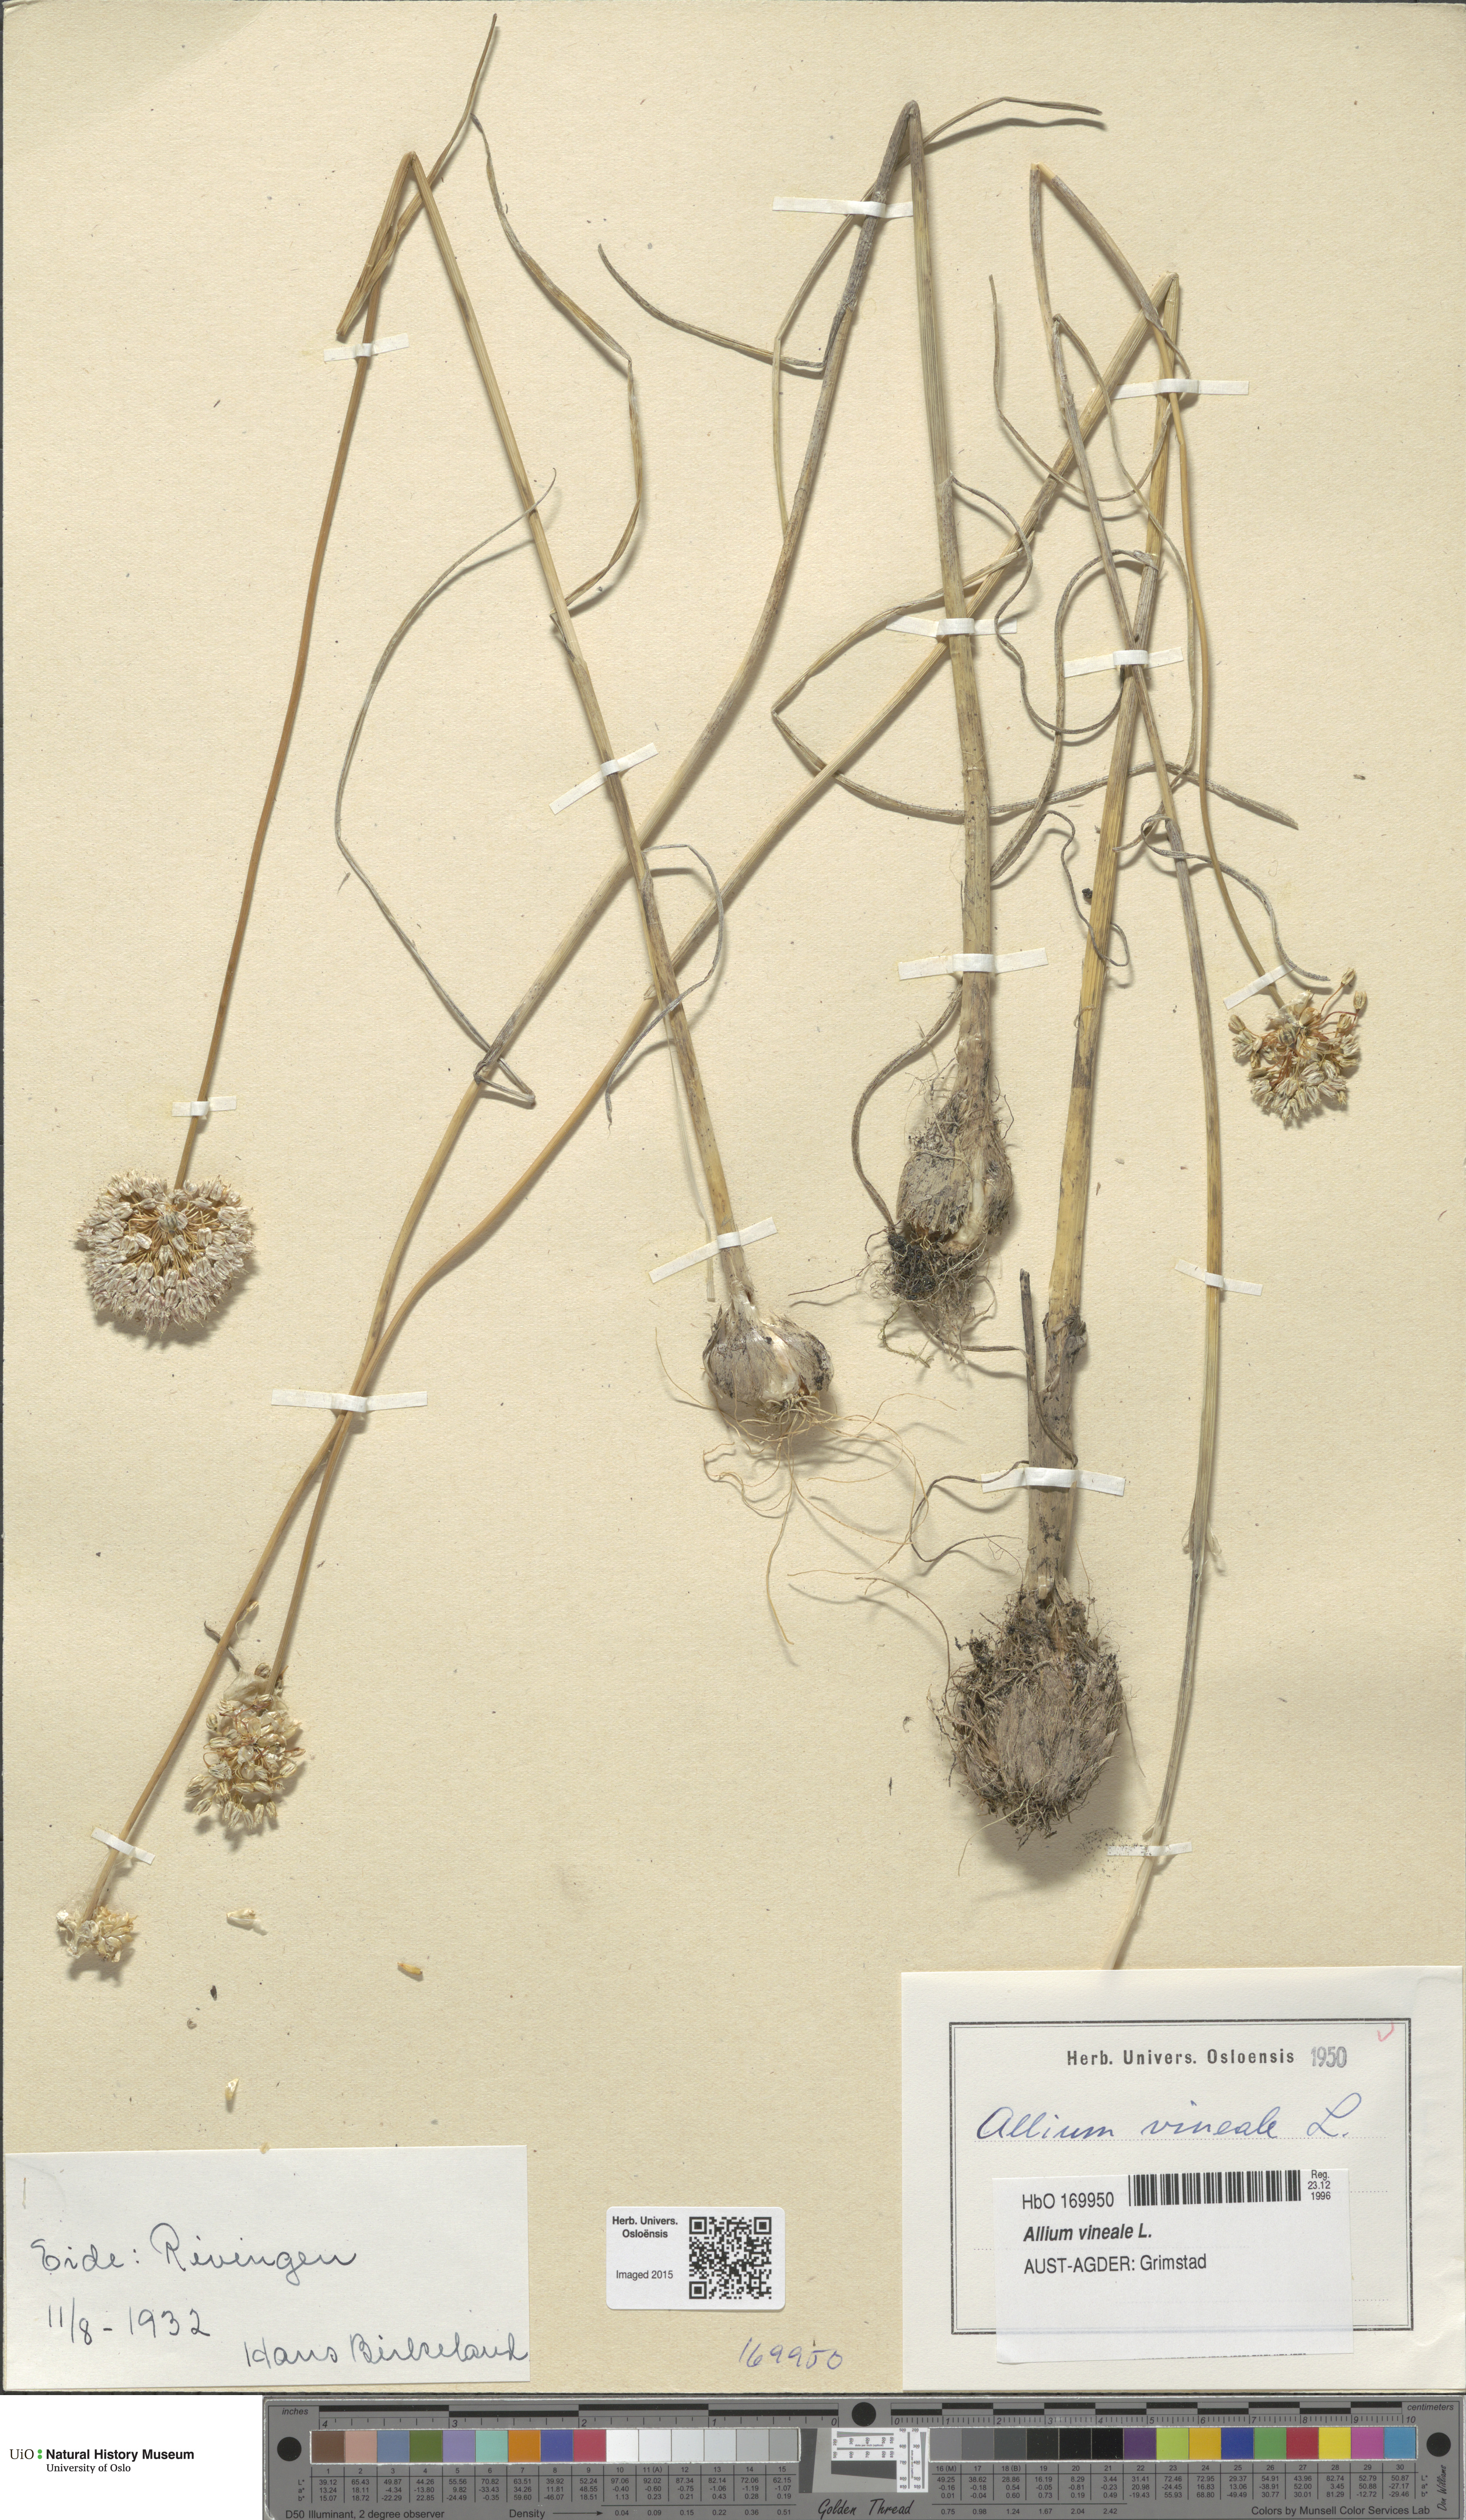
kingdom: Plantae
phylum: Tracheophyta
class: Liliopsida
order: Asparagales
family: Amaryllidaceae
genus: Allium
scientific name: Allium vineale
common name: Crow garlic
